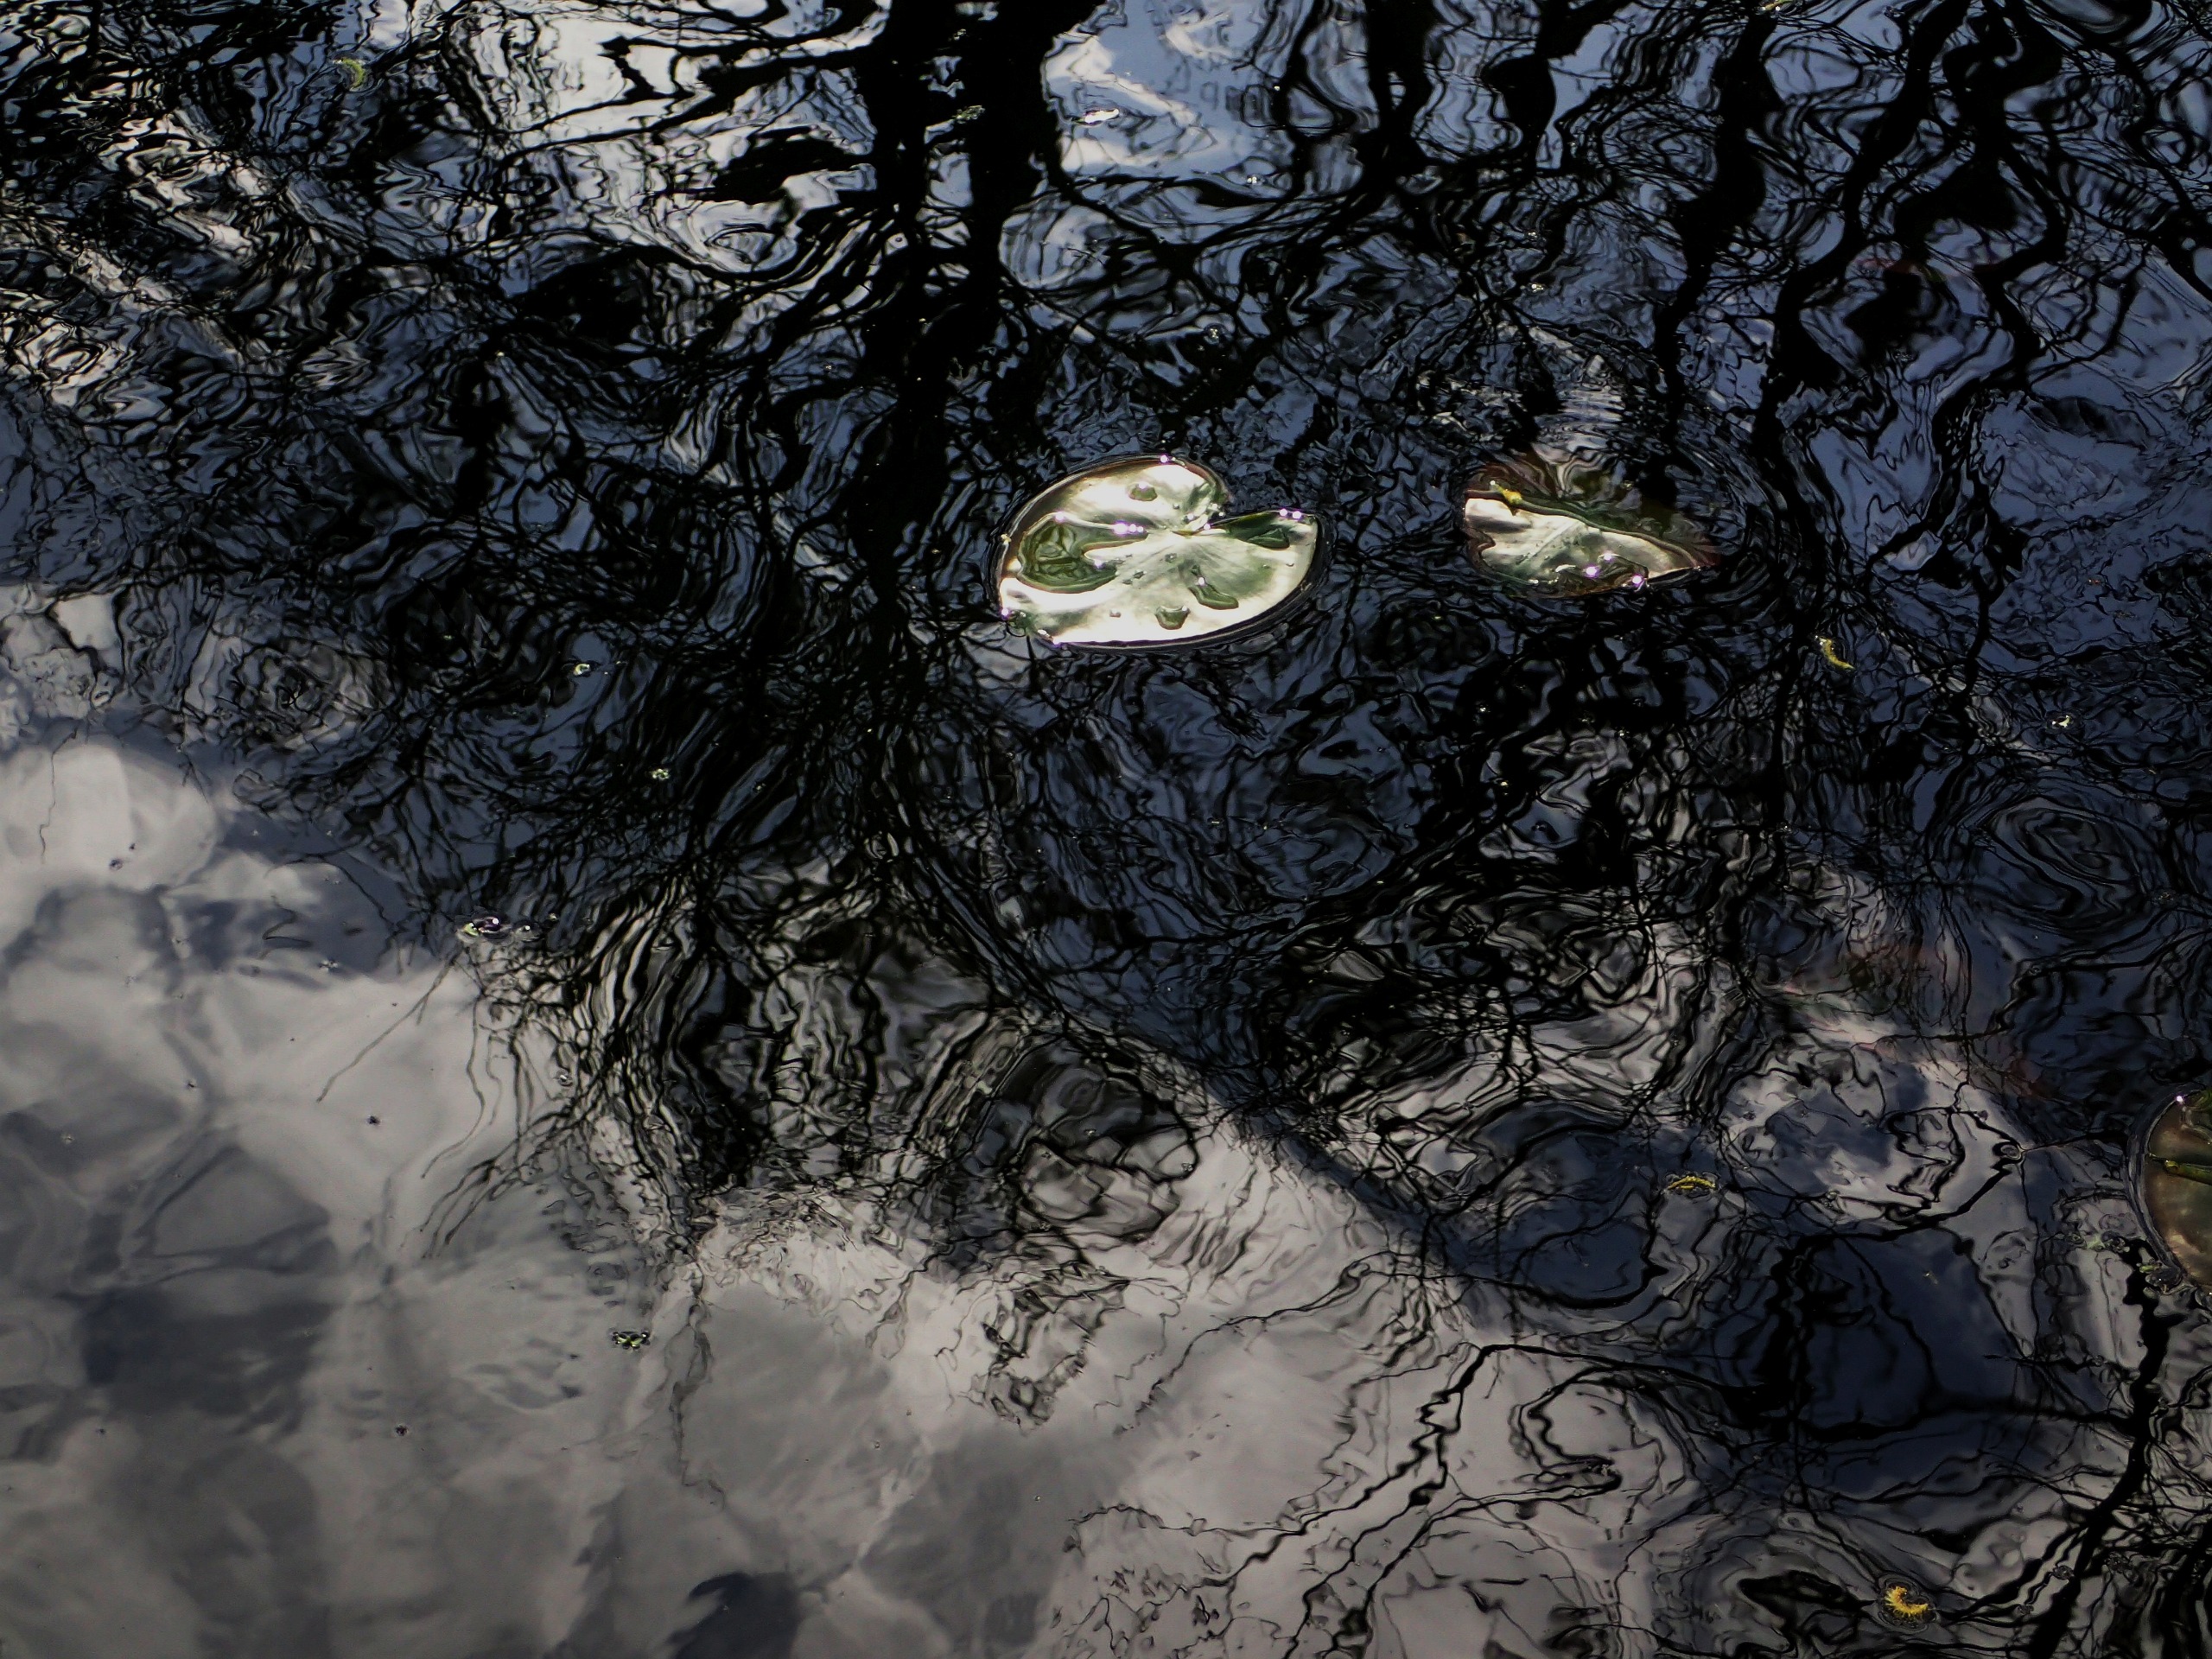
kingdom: Plantae
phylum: Tracheophyta
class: Magnoliopsida
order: Nymphaeales
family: Nymphaeaceae
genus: Nuphar
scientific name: Nuphar lutea
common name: Gul åkande
